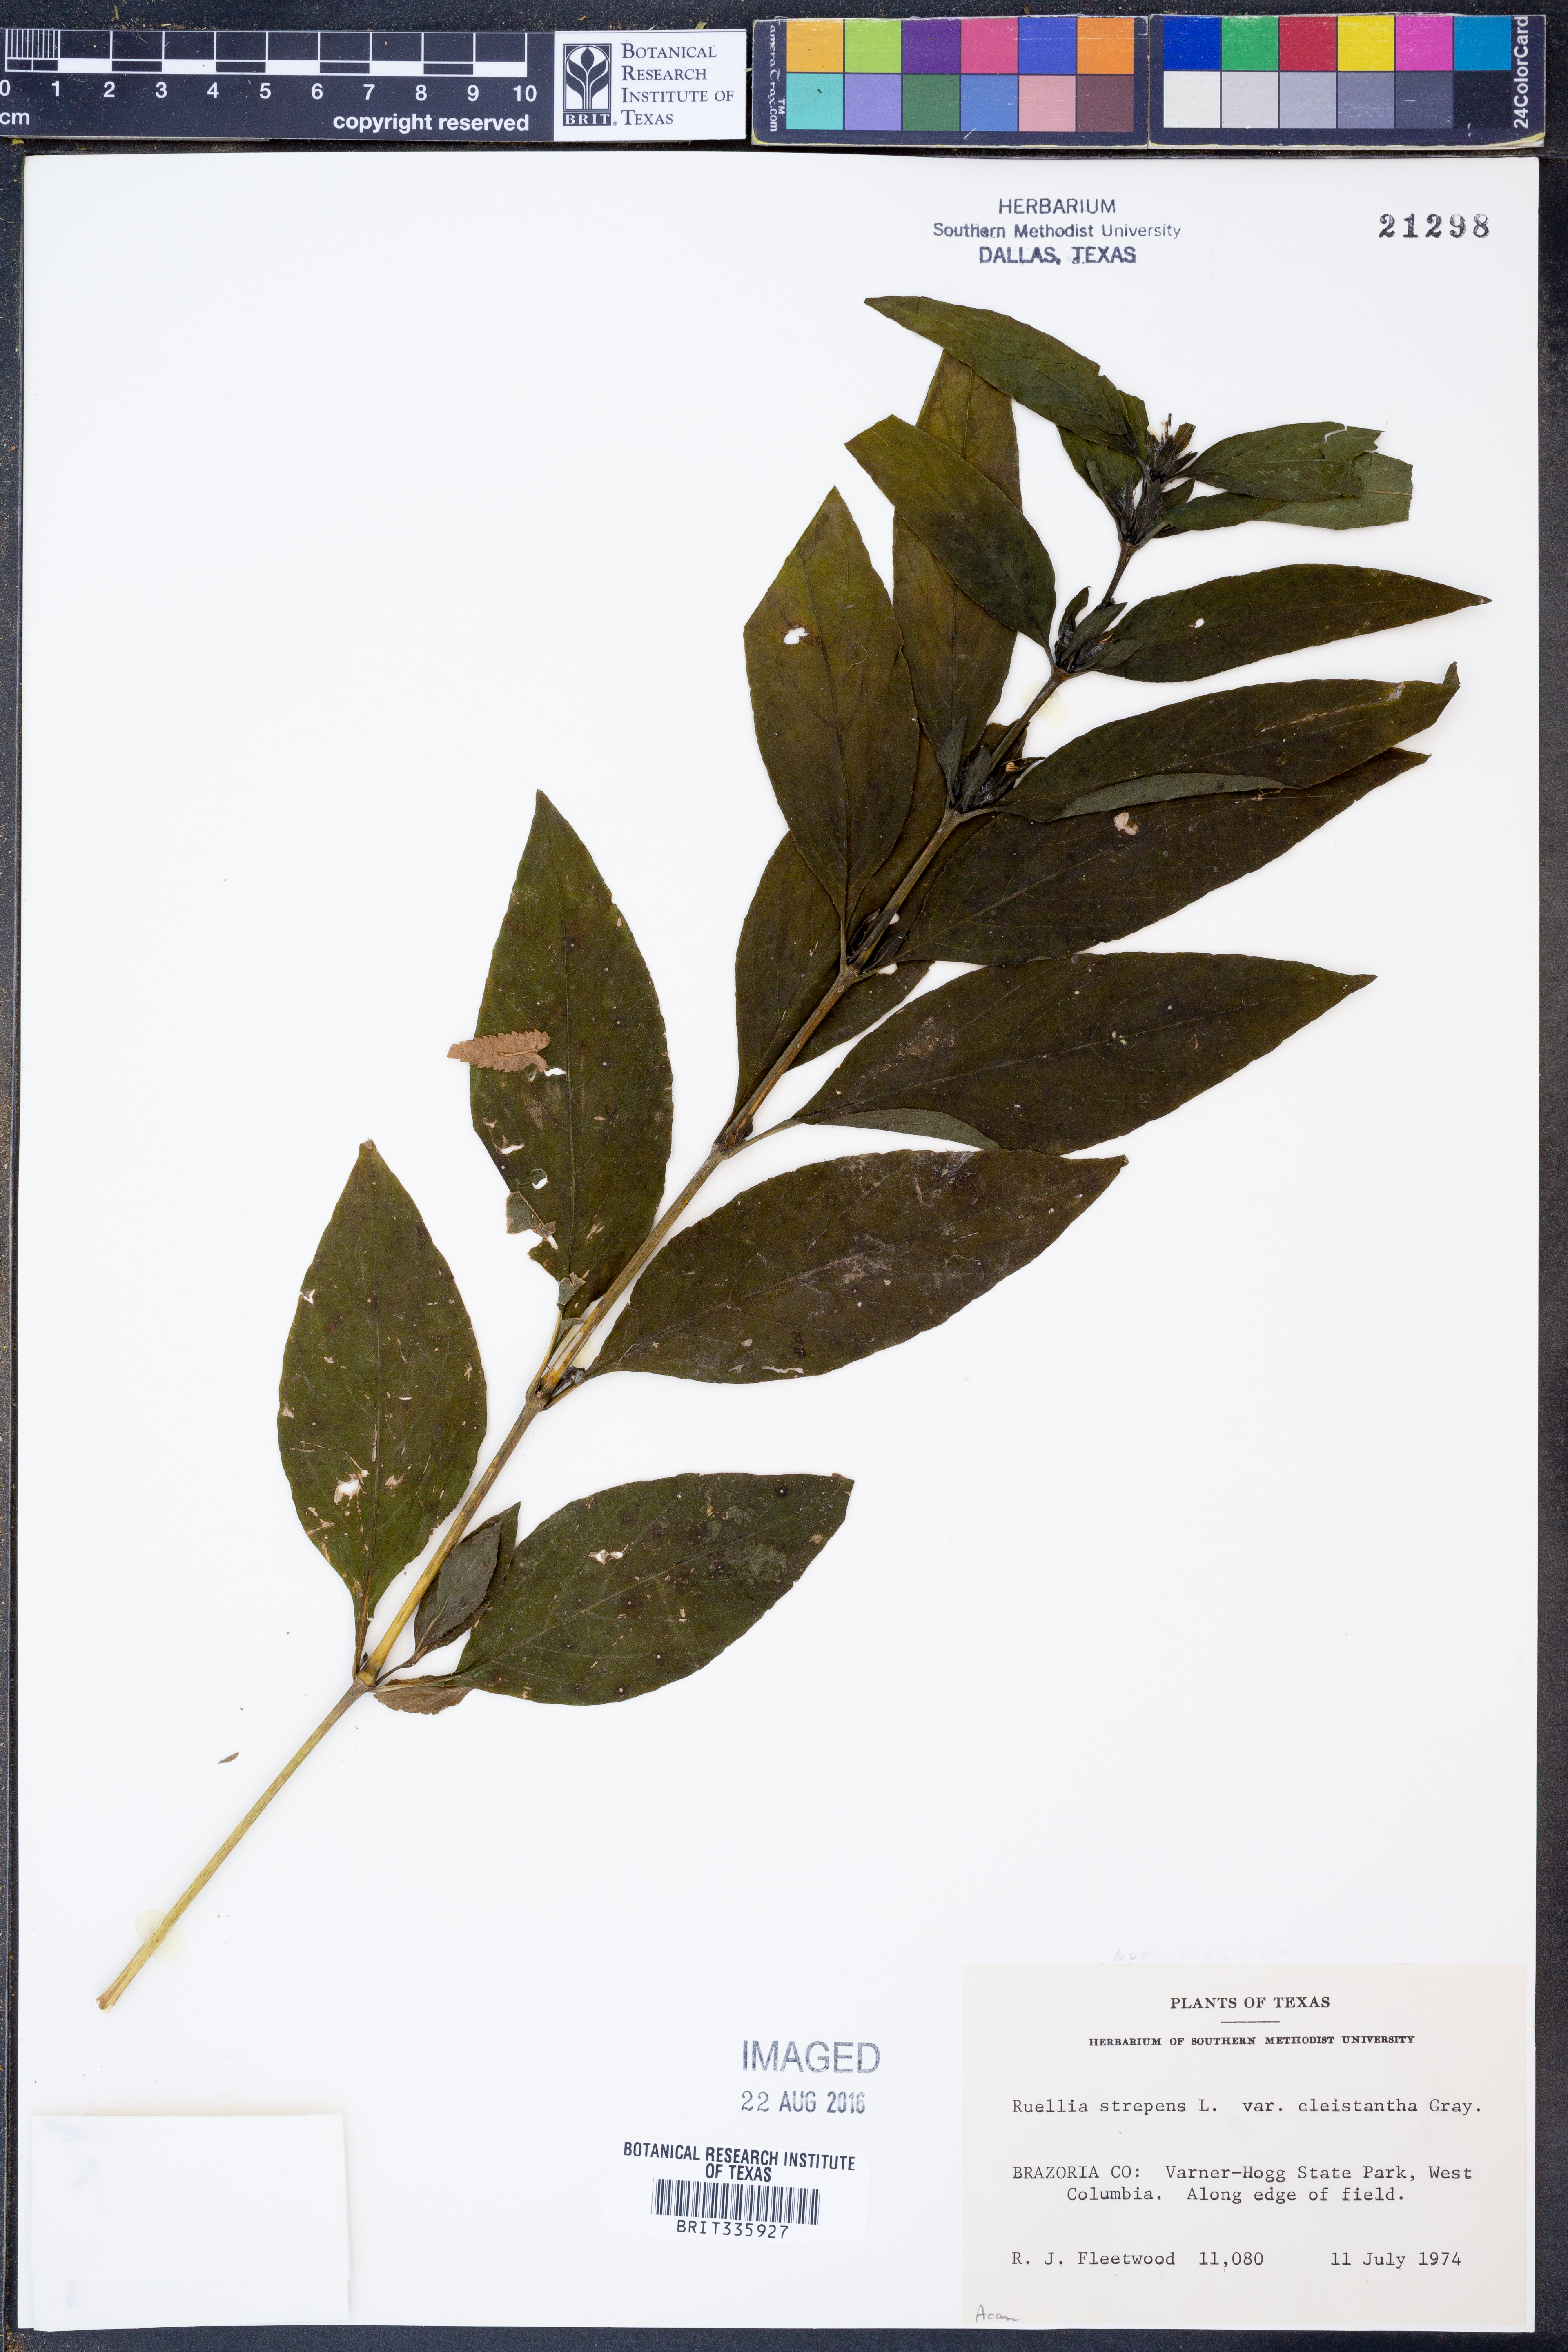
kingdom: Plantae
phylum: Tracheophyta
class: Magnoliopsida
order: Lamiales
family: Acanthaceae
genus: Ruellia
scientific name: Ruellia strepens
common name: Limestone wild petunia
